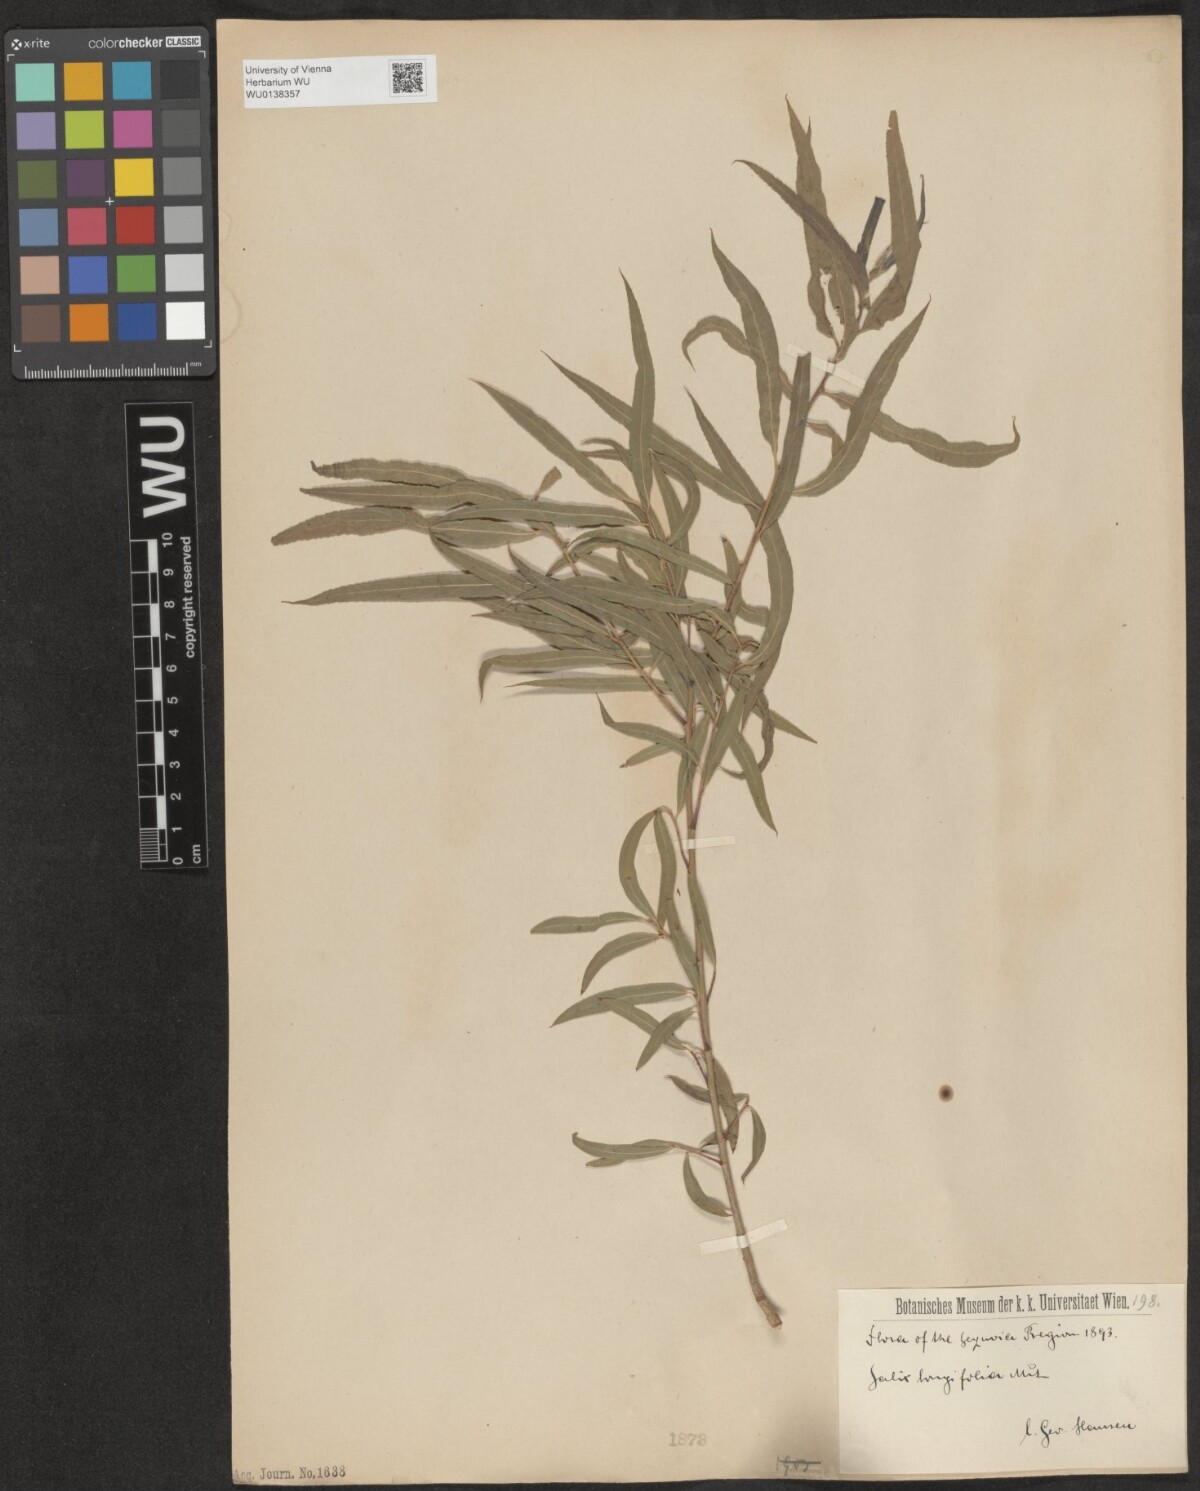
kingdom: Plantae
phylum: Tracheophyta
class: Magnoliopsida
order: Malpighiales
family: Salicaceae
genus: Salix
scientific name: Salix interior
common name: Sandbar willow
